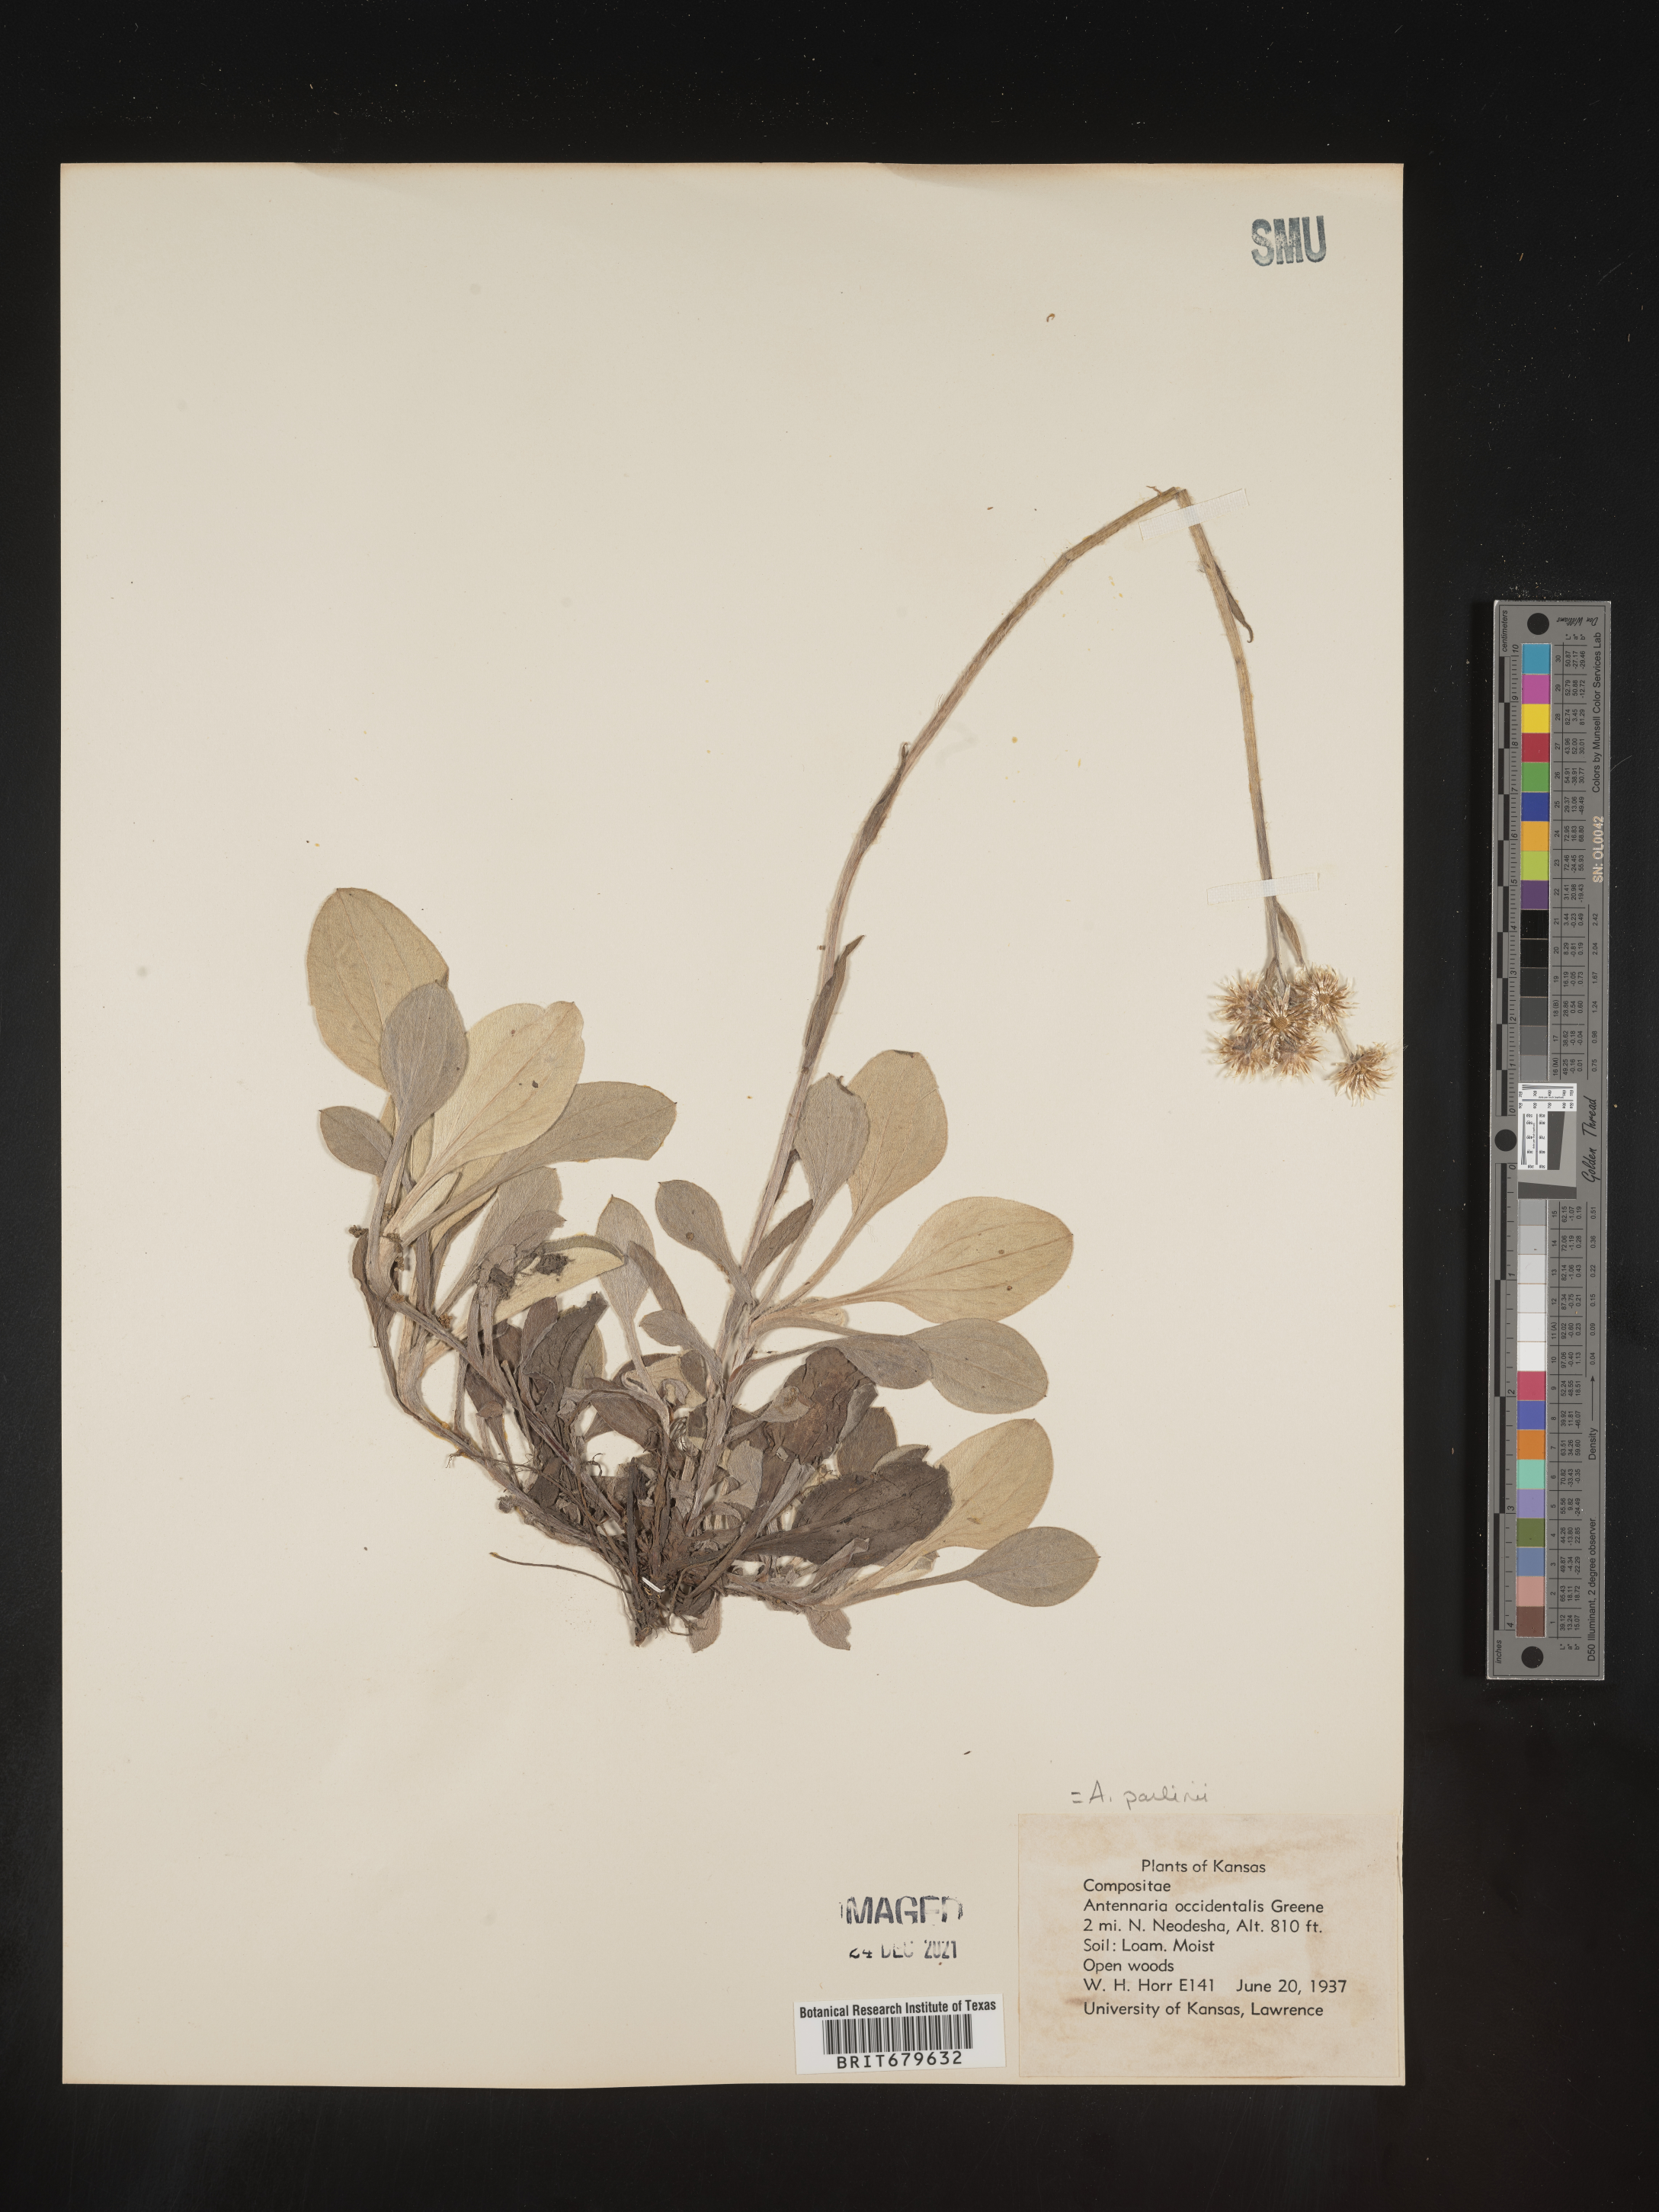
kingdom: Plantae
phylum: Tracheophyta
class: Magnoliopsida
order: Asterales
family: Asteraceae
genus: Antennaria
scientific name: Antennaria parlinii
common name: Parlin's pussytoes
